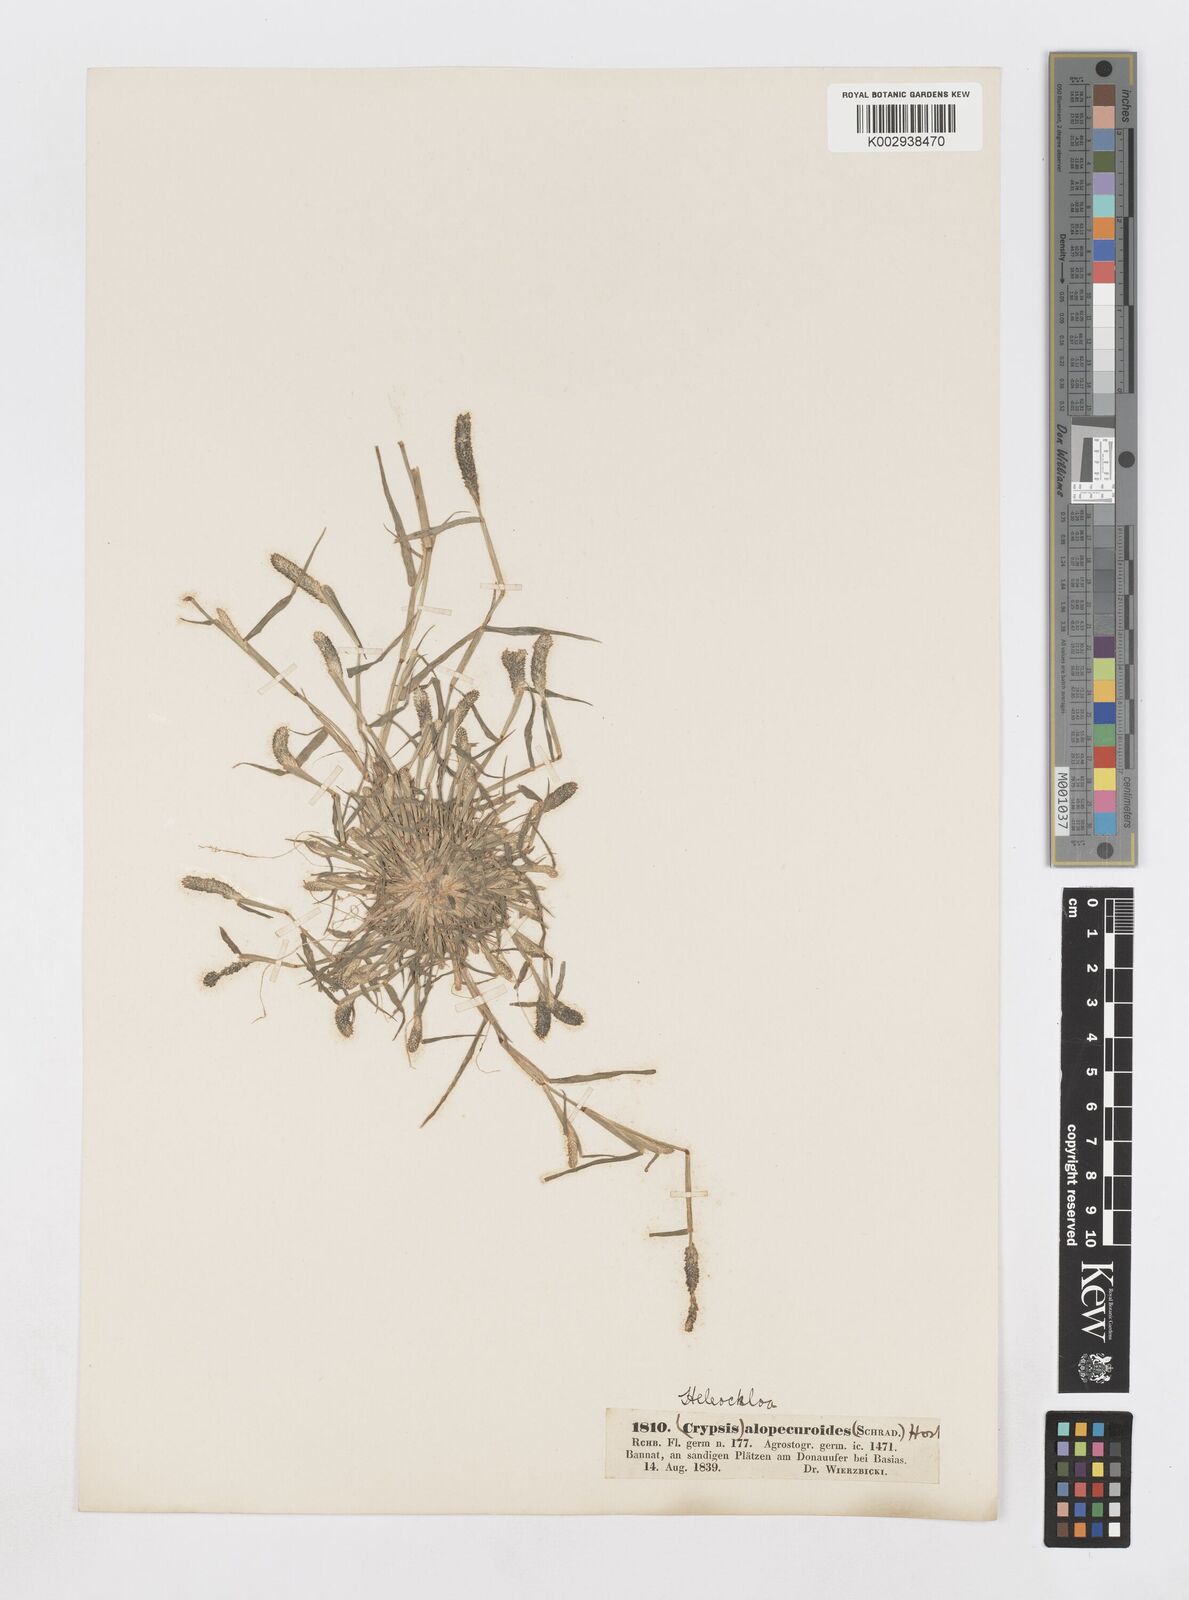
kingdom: Plantae
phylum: Tracheophyta
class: Liliopsida
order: Poales
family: Poaceae
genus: Sporobolus
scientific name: Sporobolus alopecuroides
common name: Foxtail pricklegrass
